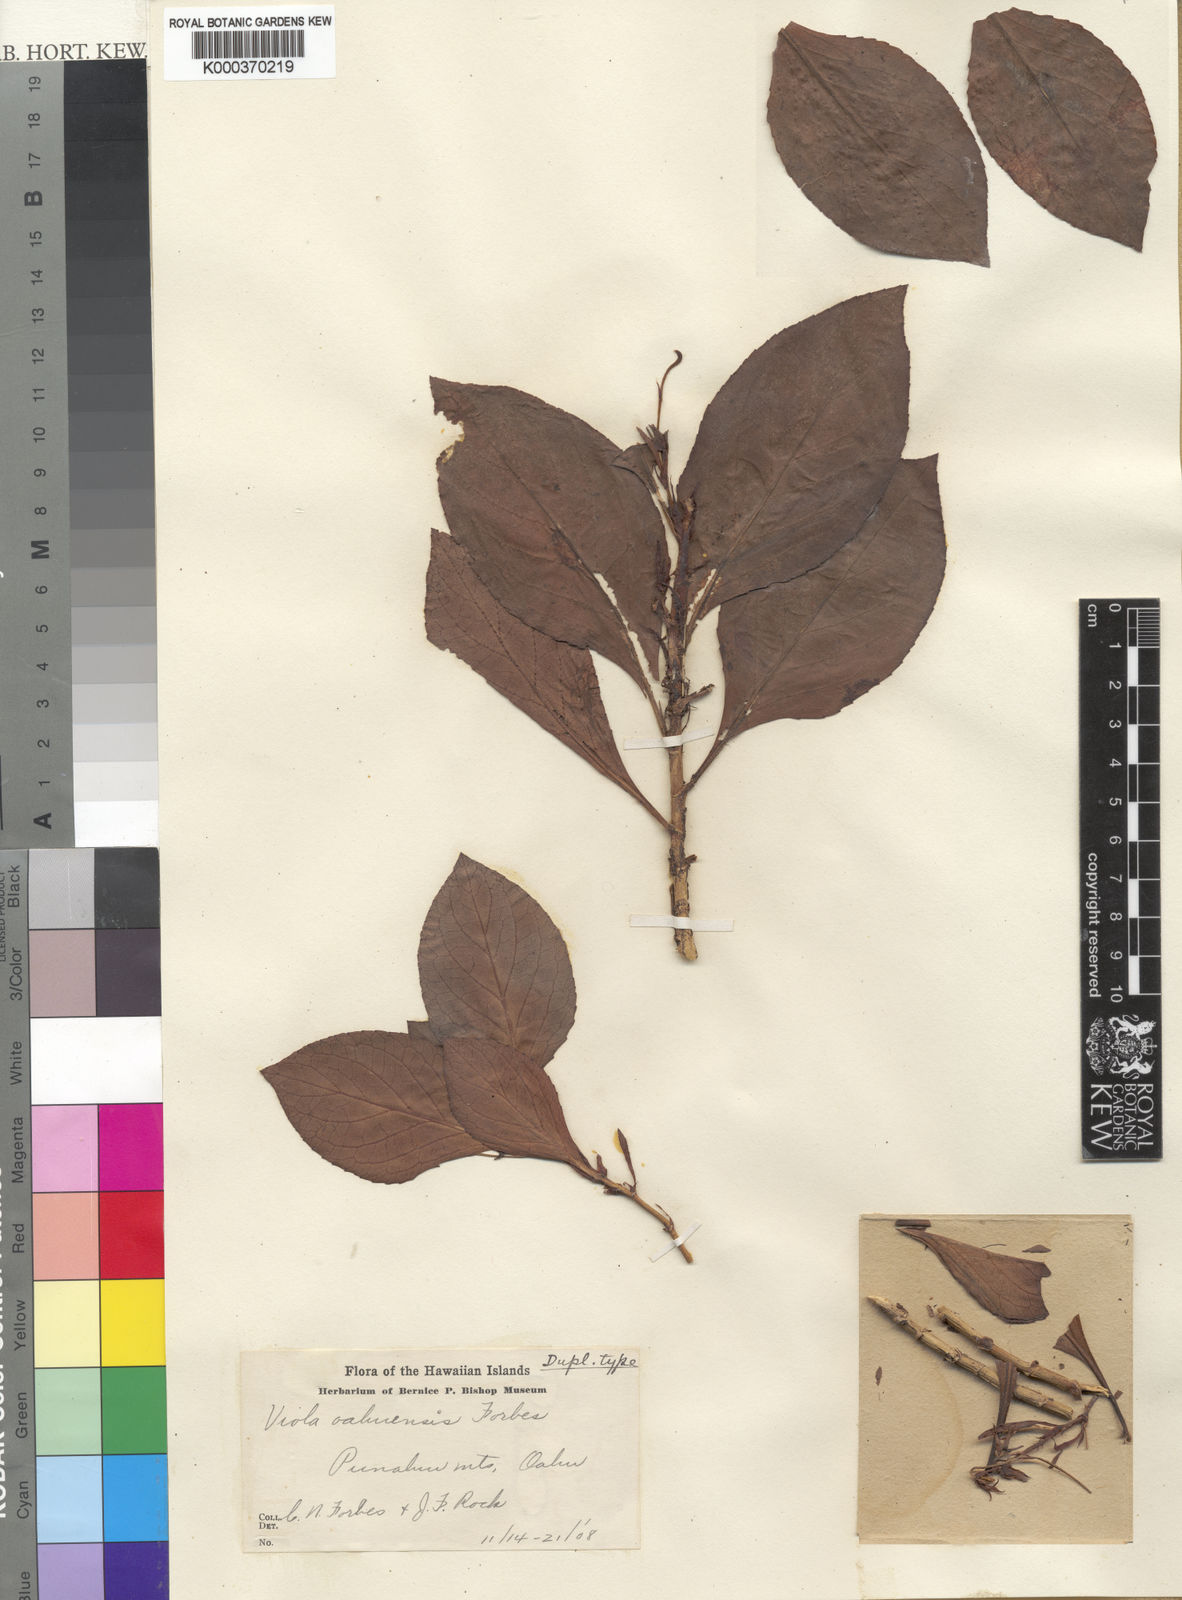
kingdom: Plantae
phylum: Tracheophyta
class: Magnoliopsida
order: Malpighiales
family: Violaceae
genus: Viola
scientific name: Viola oahuensis
